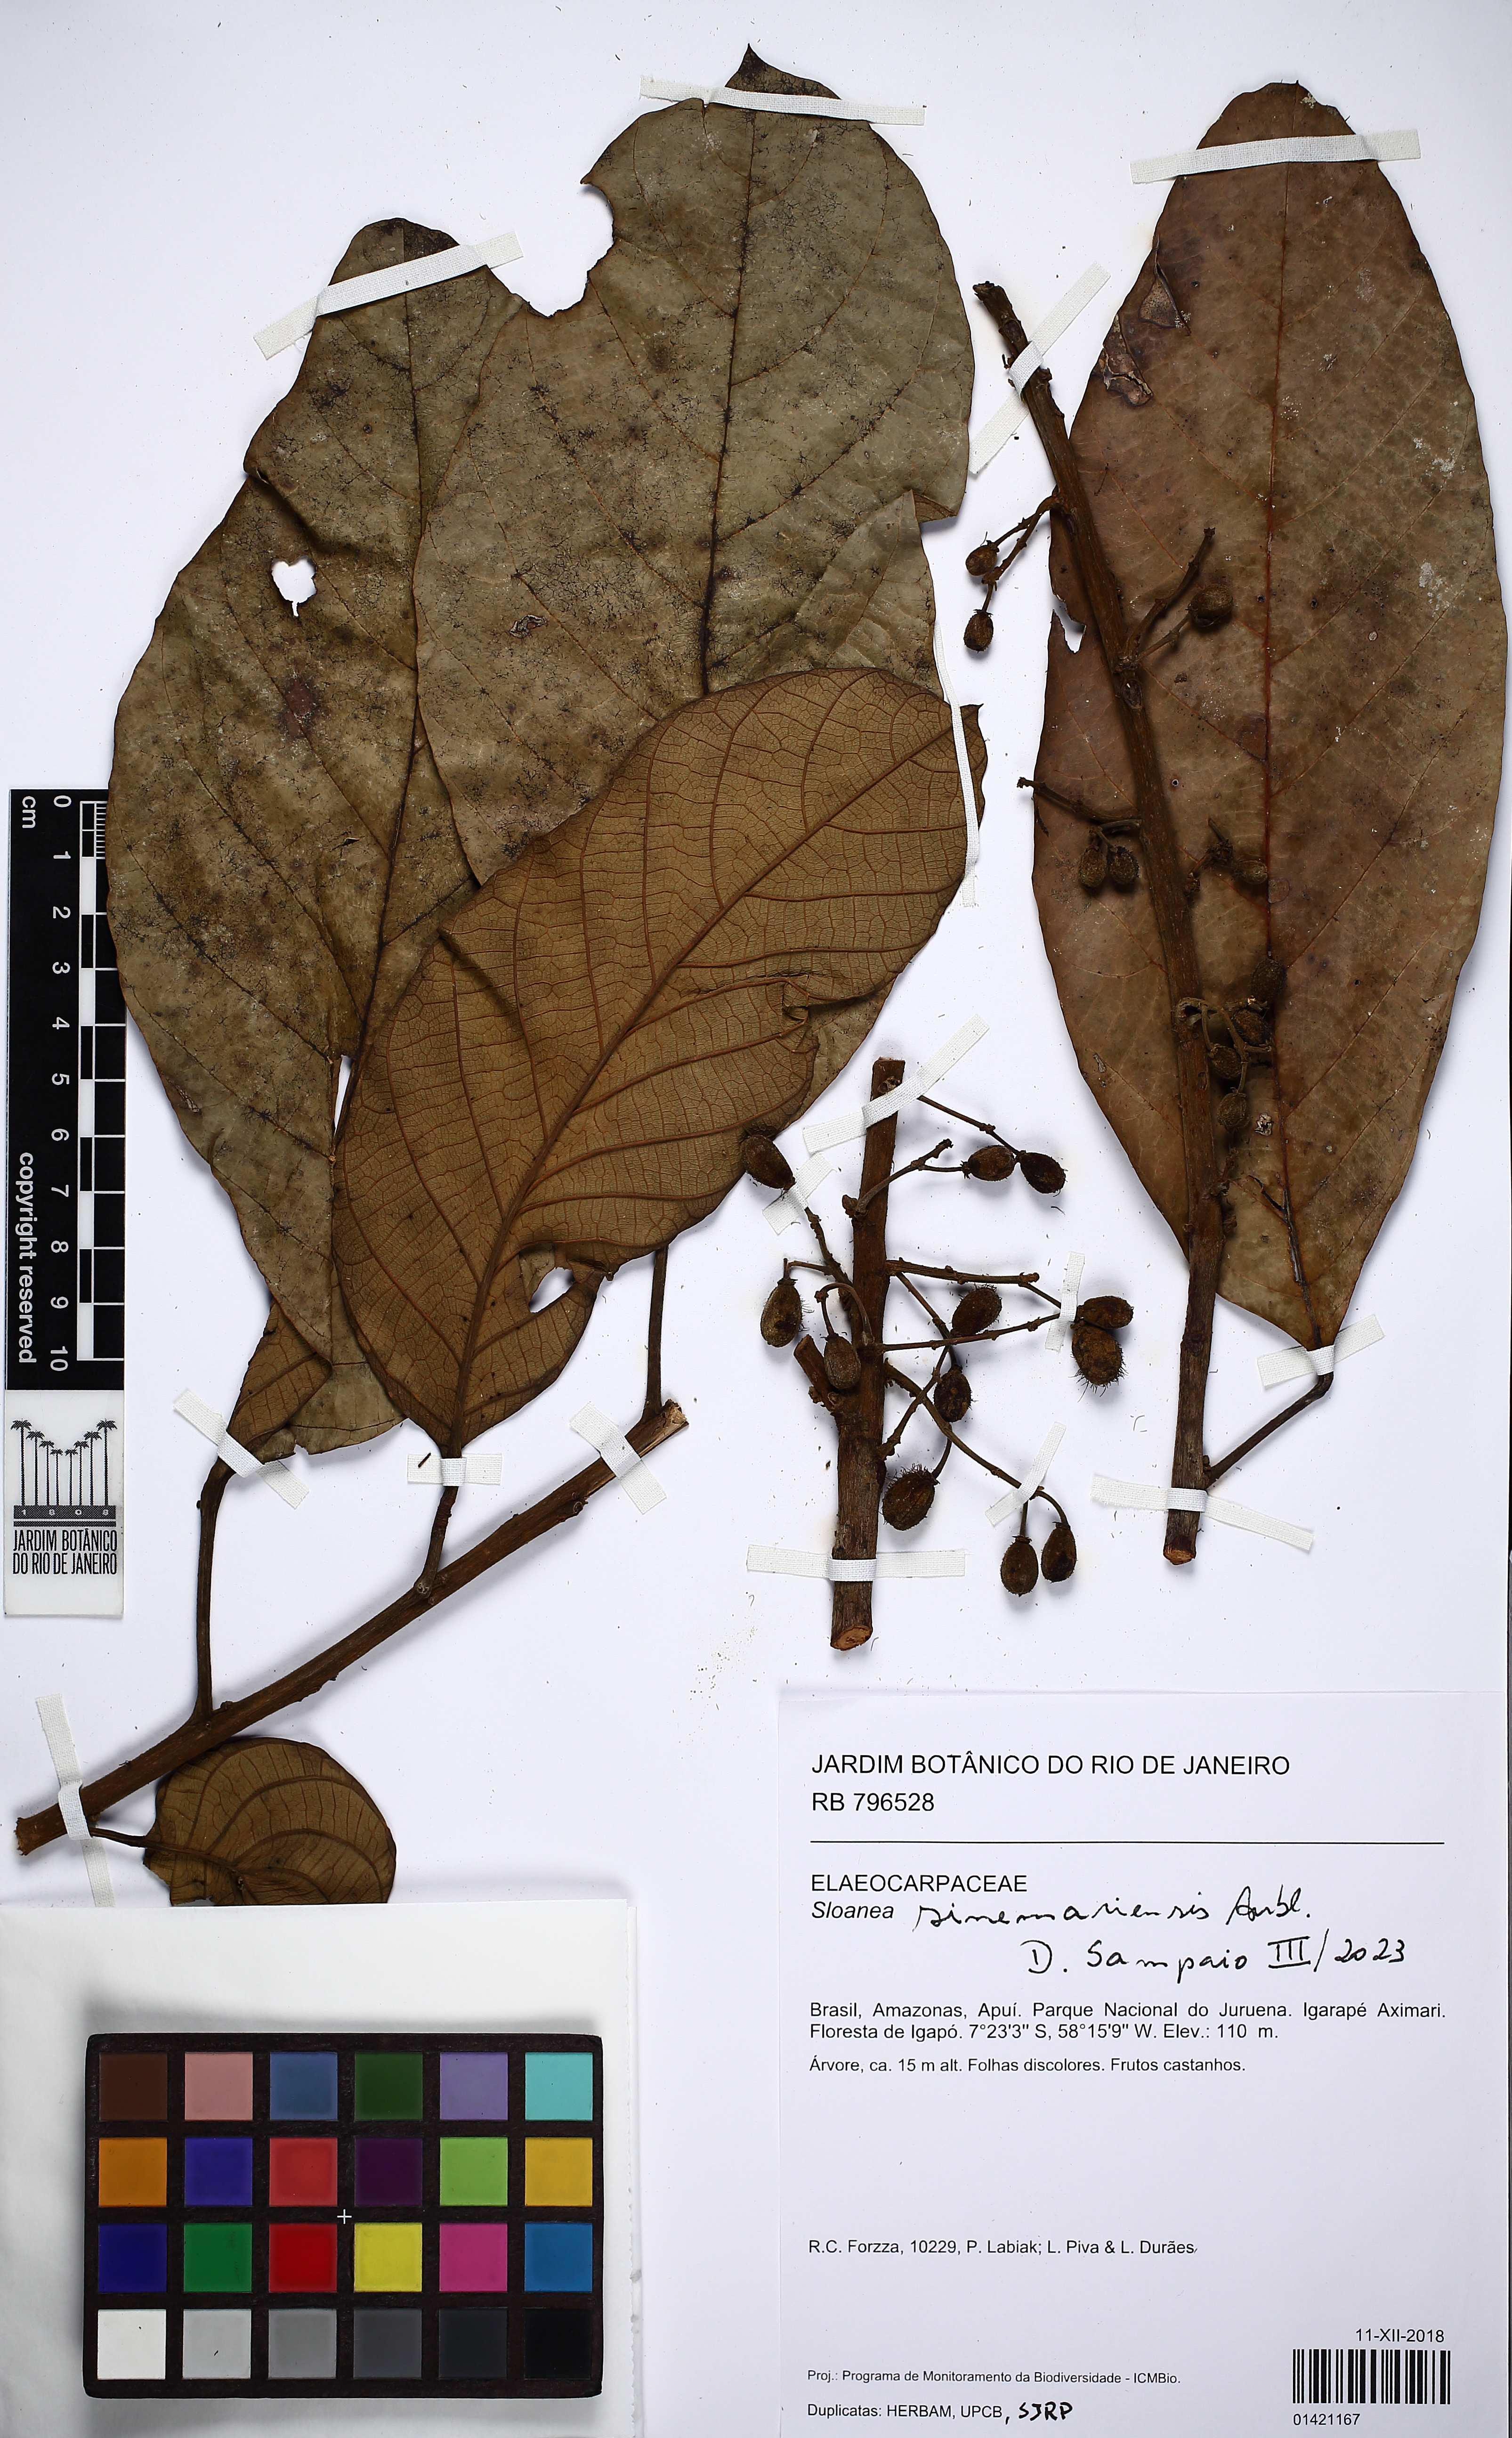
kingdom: Plantae
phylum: Tracheophyta
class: Magnoliopsida
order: Oxalidales
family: Elaeocarpaceae
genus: Sloanea
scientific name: Sloanea sinemariensis
